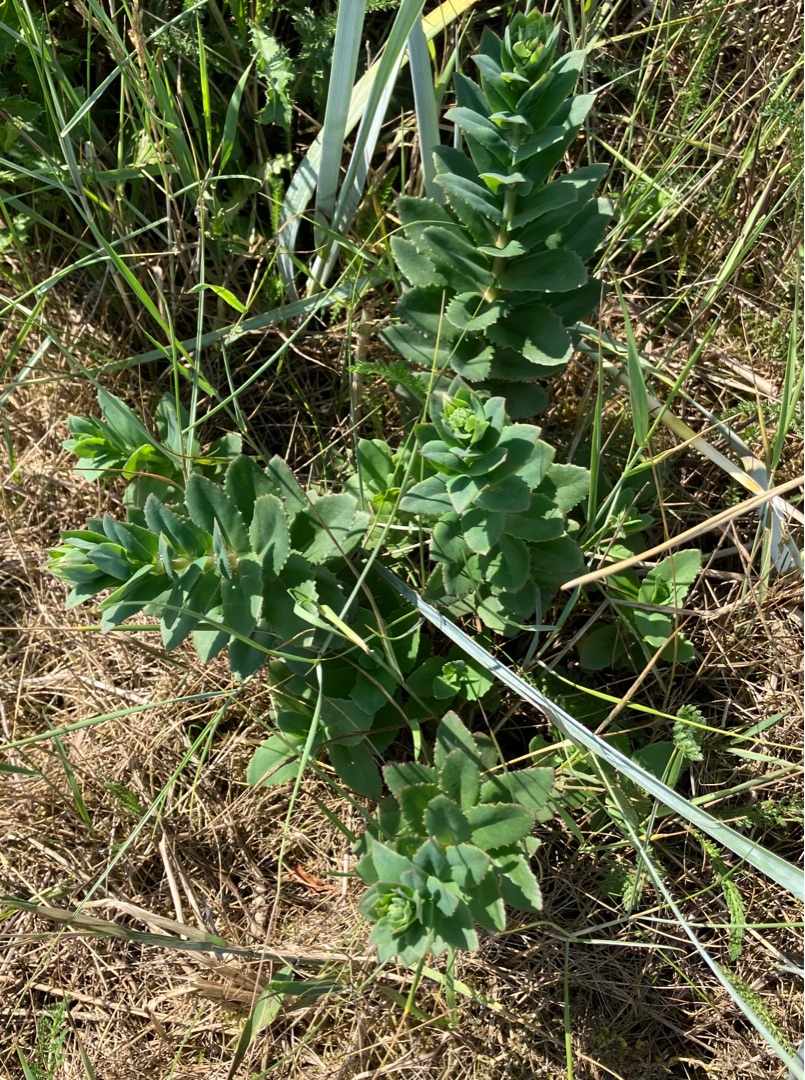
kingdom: Plantae
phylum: Tracheophyta
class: Magnoliopsida
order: Saxifragales
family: Crassulaceae
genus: Hylotelephium
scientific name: Hylotelephium maximum
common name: Almindelig sankthansurt
